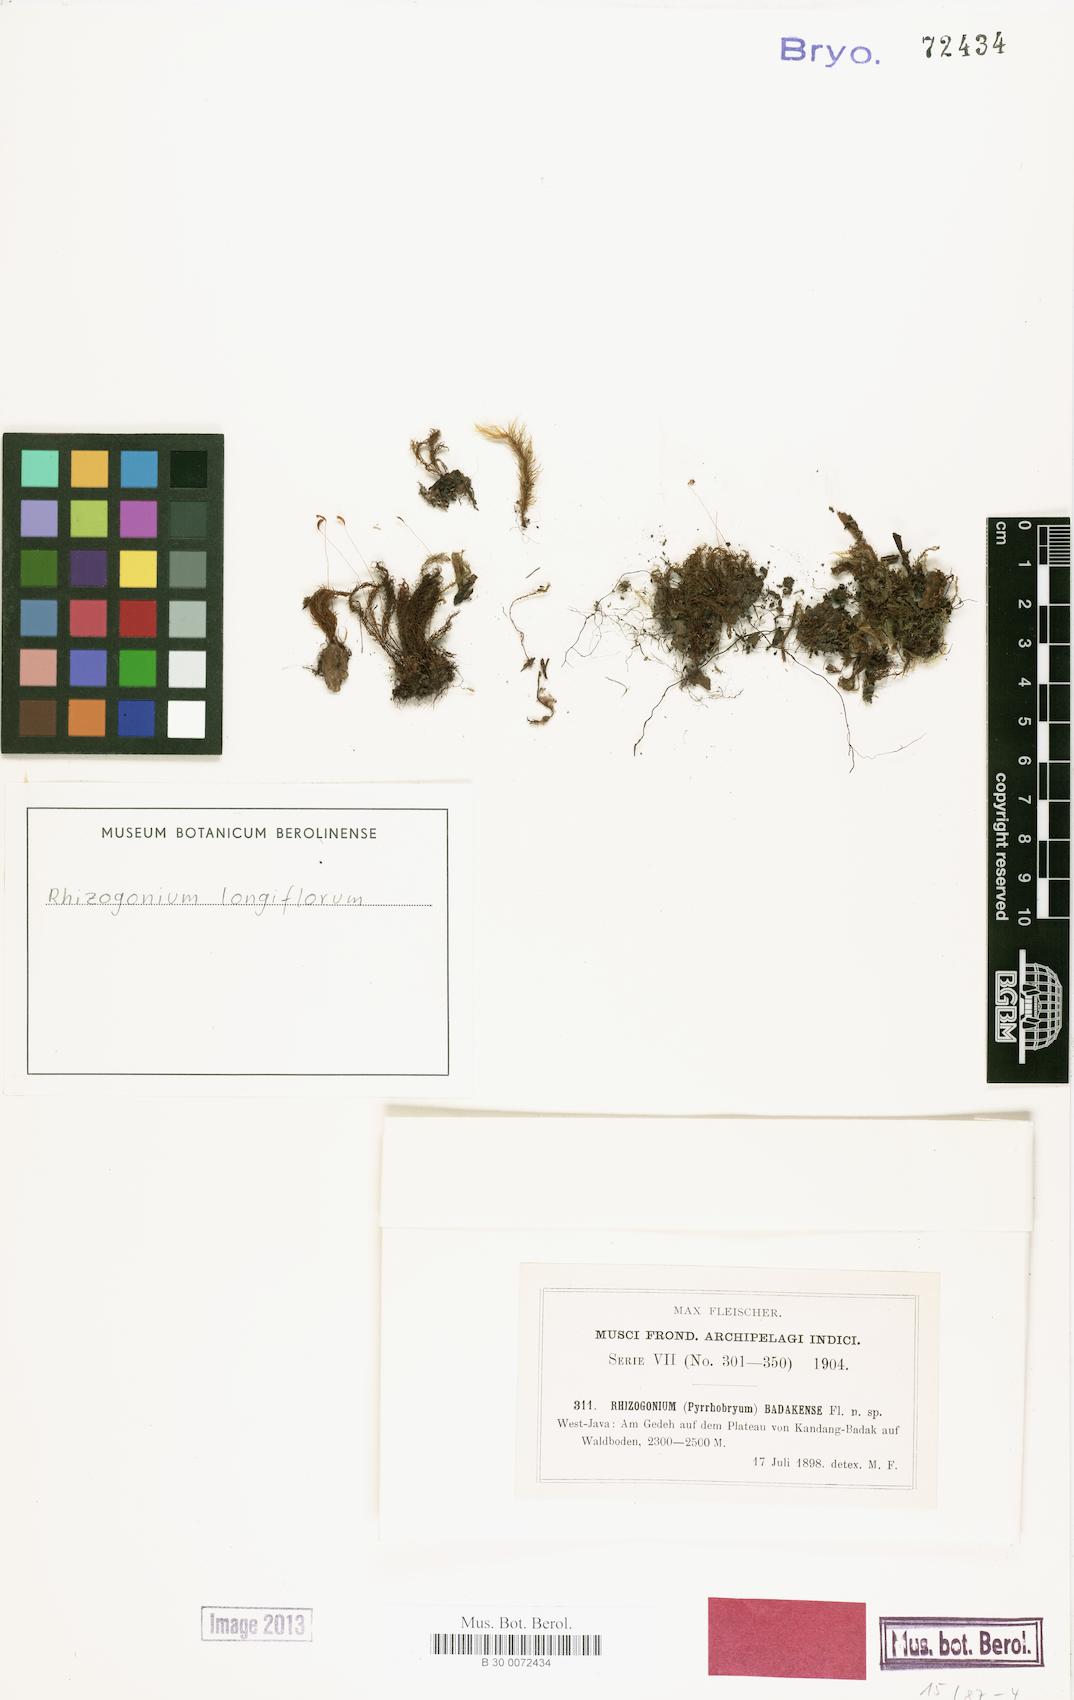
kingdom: Plantae
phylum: Bryophyta
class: Bryopsida
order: Rhizogoniales
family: Calomniaceae
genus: Pyrrhobryum
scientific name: Pyrrhobryum latifolium
